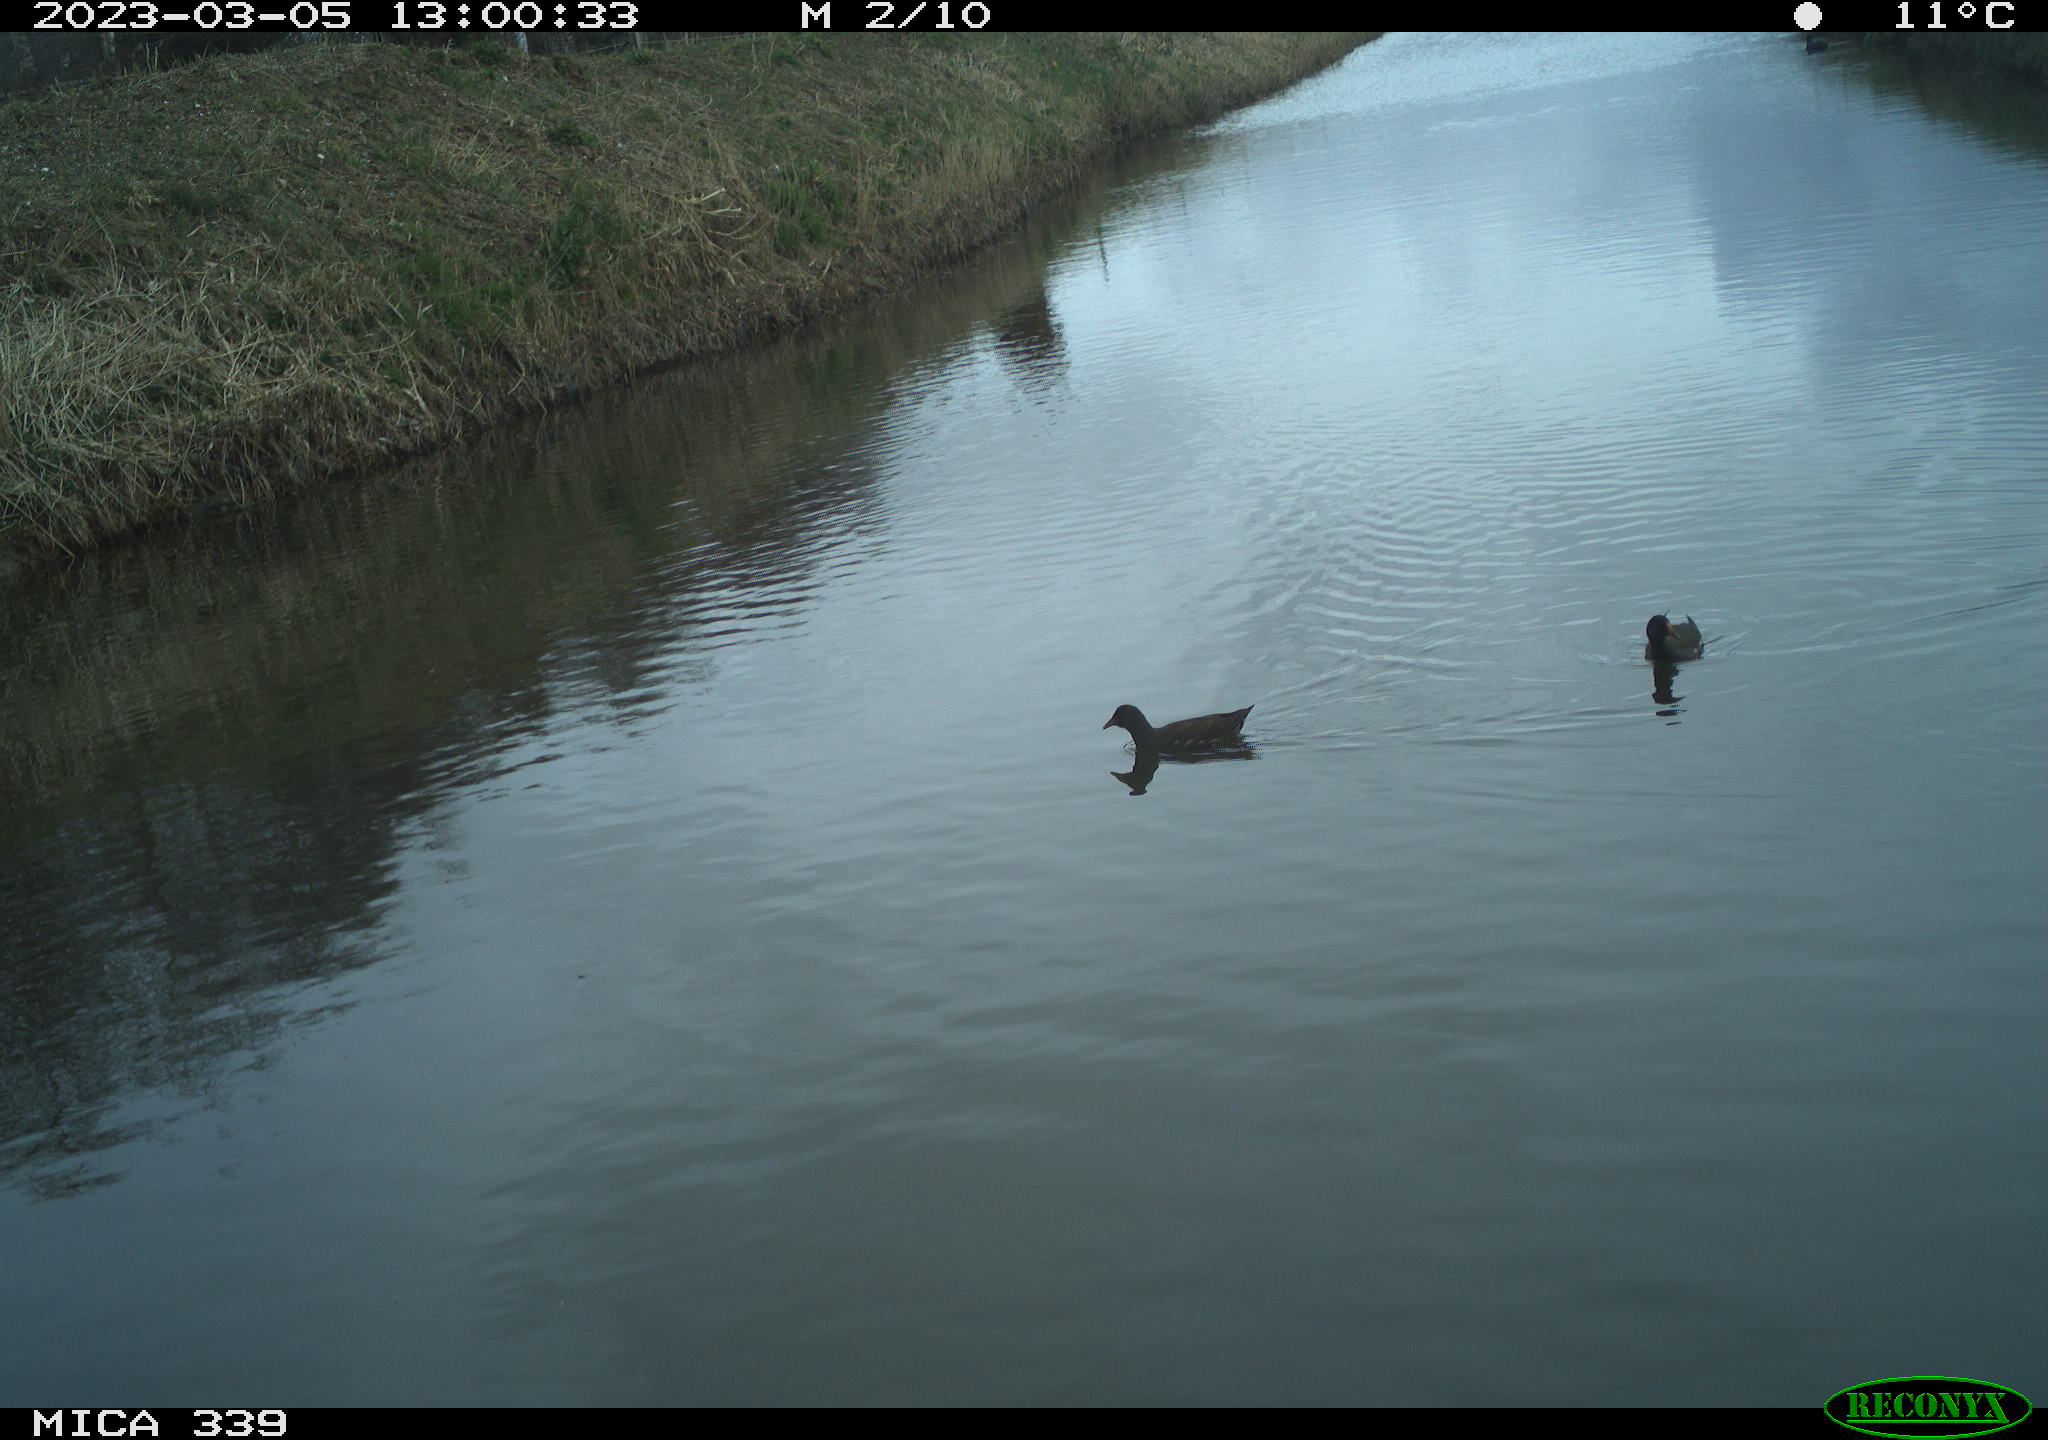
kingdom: Animalia
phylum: Chordata
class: Aves
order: Gruiformes
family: Rallidae
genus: Gallinula
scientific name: Gallinula chloropus
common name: Common moorhen
